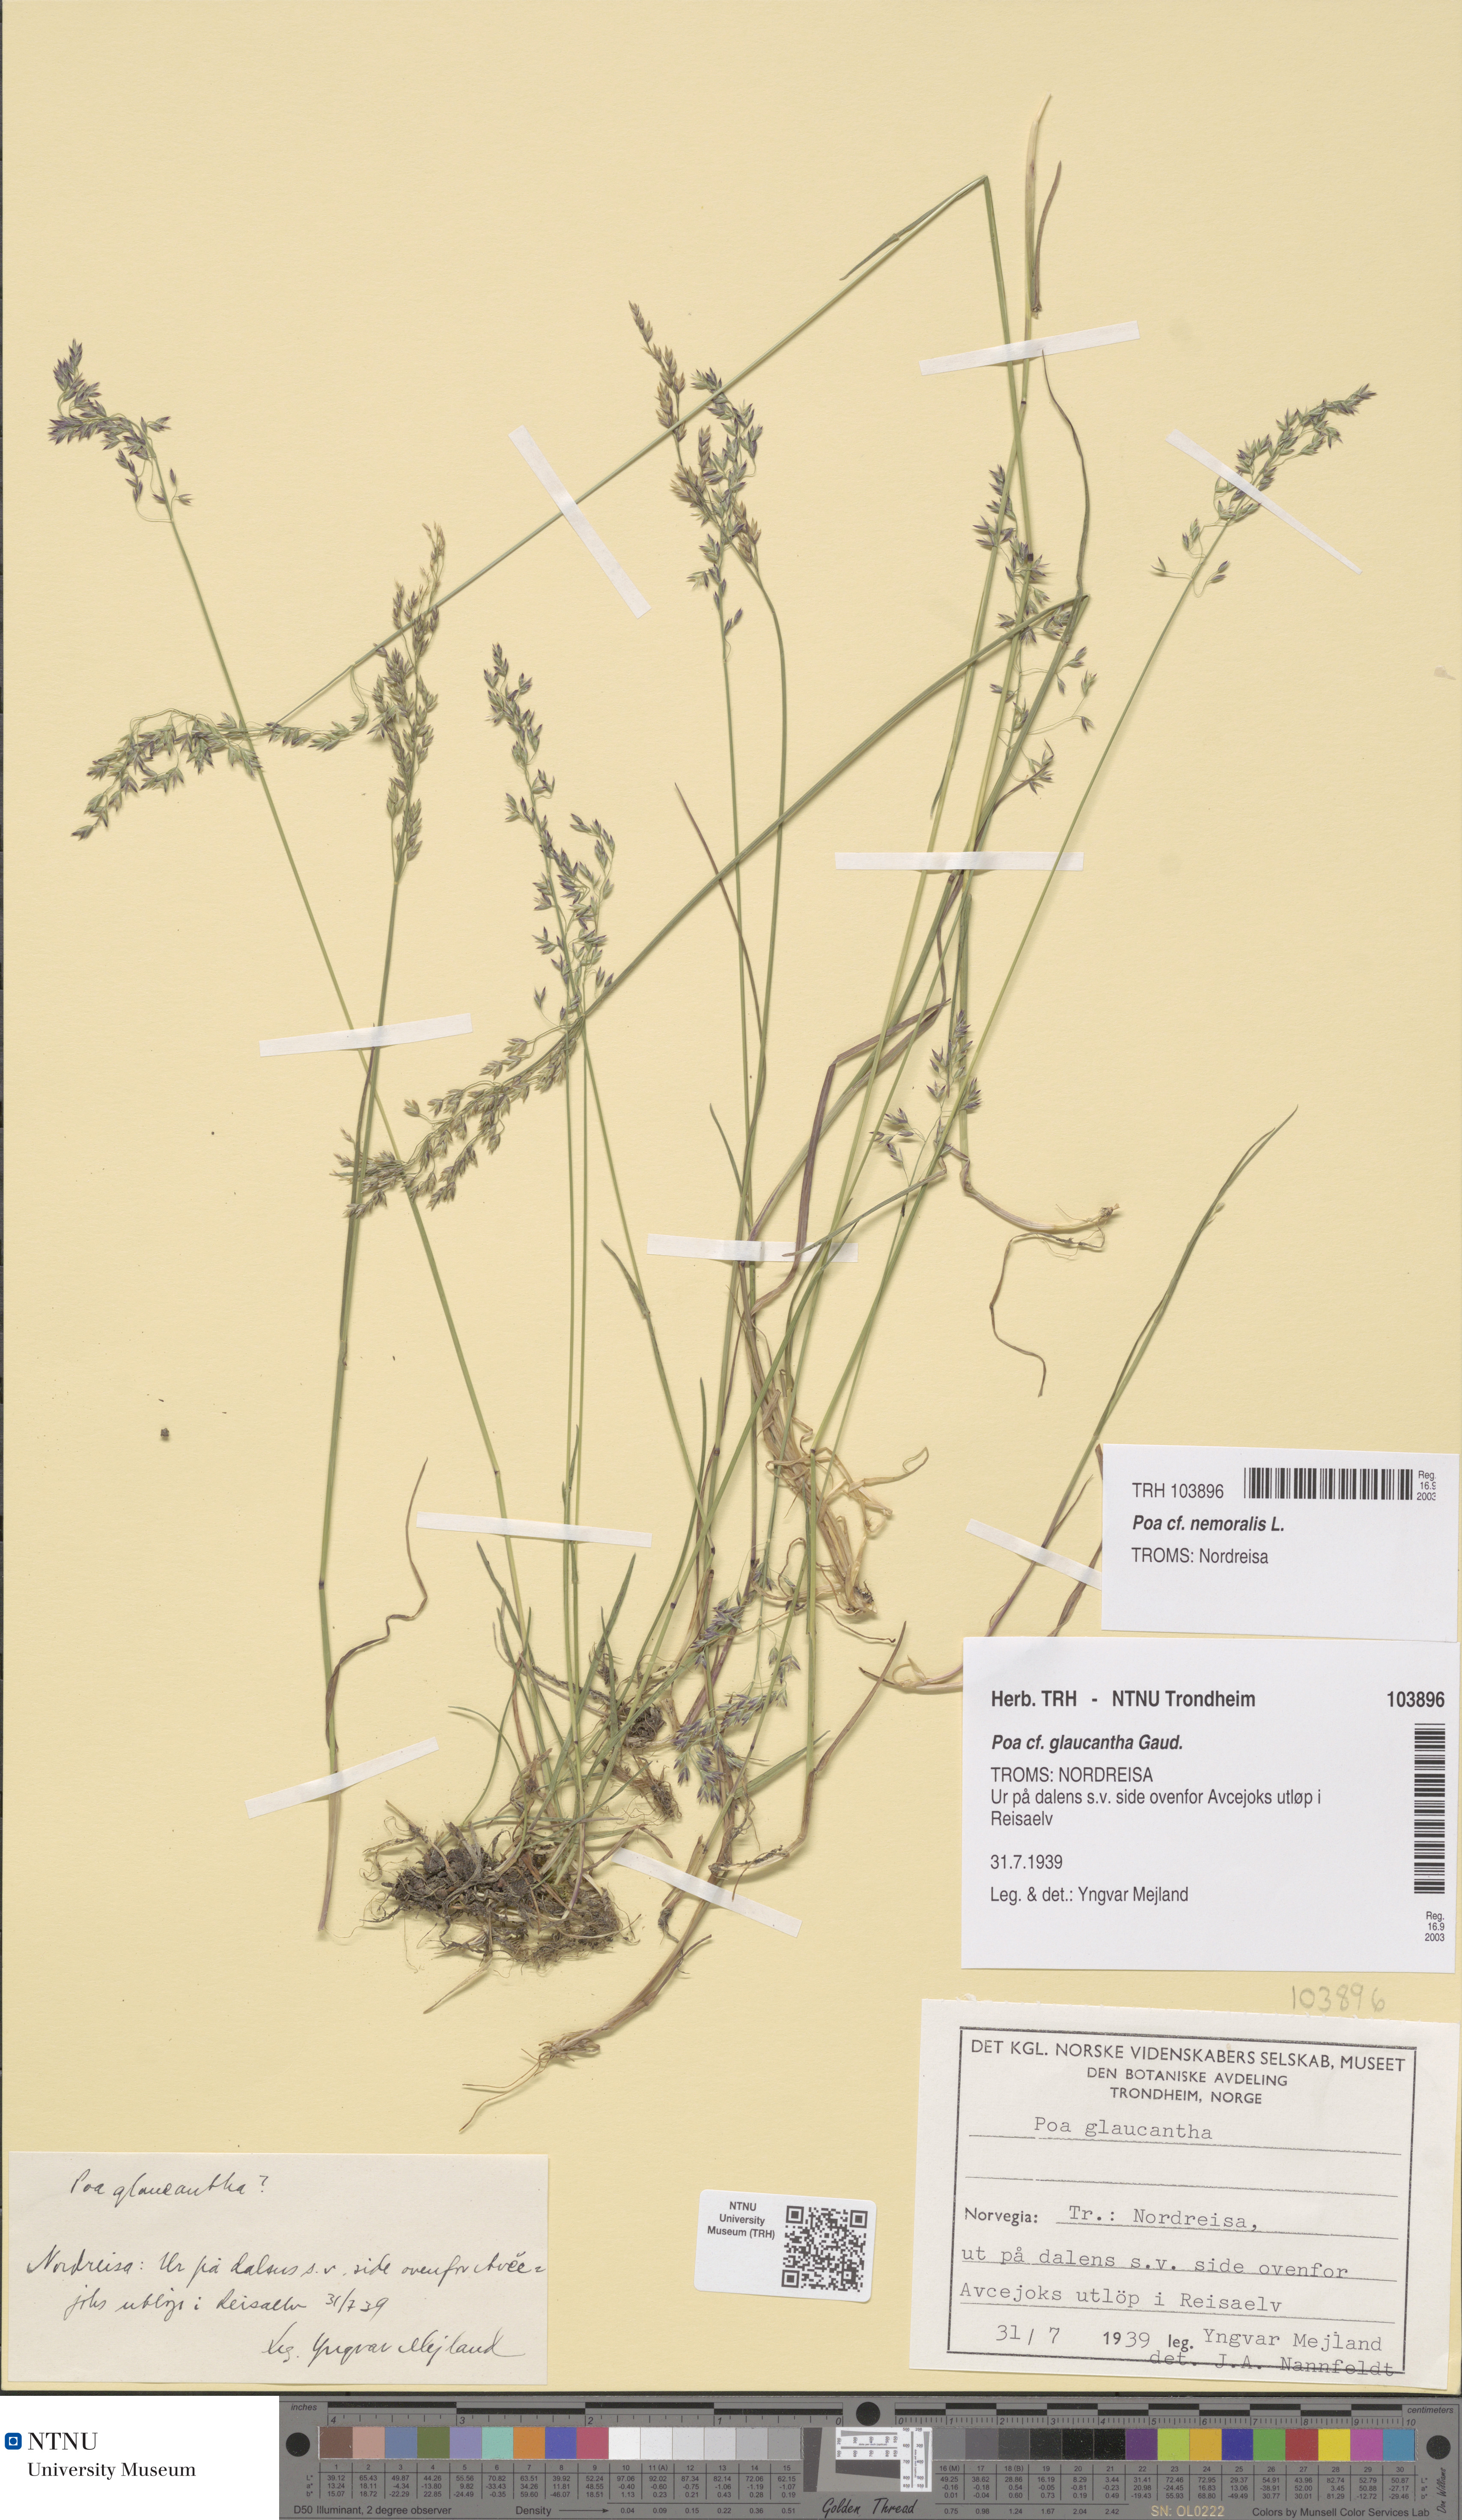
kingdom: Plantae
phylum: Tracheophyta
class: Liliopsida
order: Poales
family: Poaceae
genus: Poa
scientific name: Poa nemoralis
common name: Wood bluegrass
